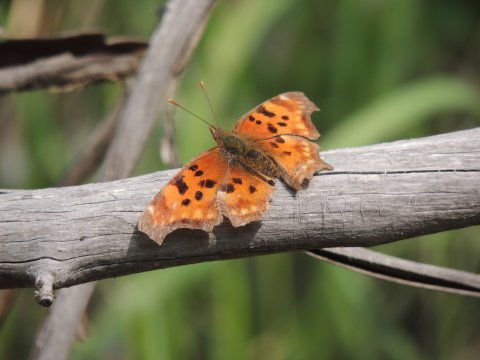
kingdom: Animalia
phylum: Arthropoda
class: Insecta
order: Lepidoptera
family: Nymphalidae
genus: Polygonia
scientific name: Polygonia satyrus
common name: Satyr Comma
